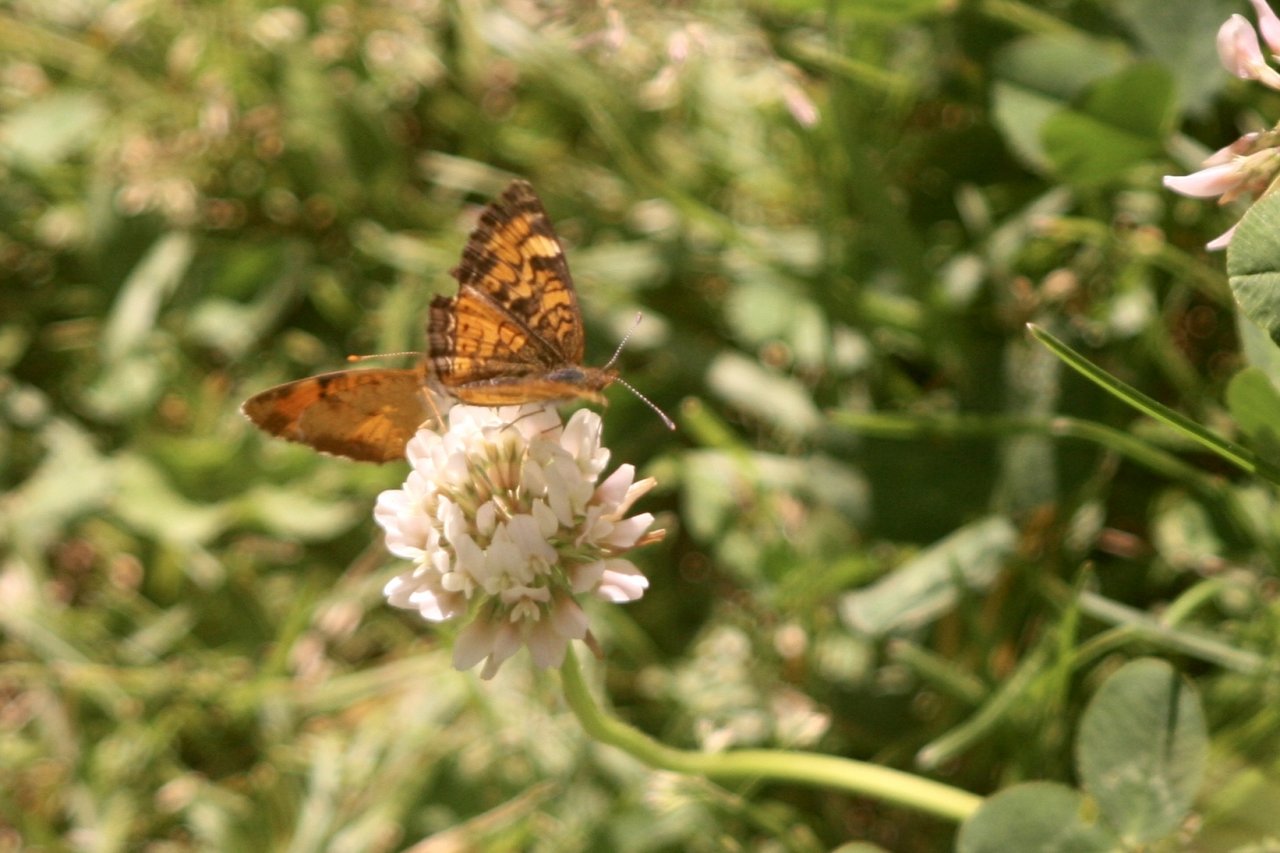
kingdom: Animalia
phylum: Arthropoda
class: Insecta
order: Lepidoptera
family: Nymphalidae
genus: Phyciodes
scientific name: Phyciodes tharos
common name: Northern Crescent
